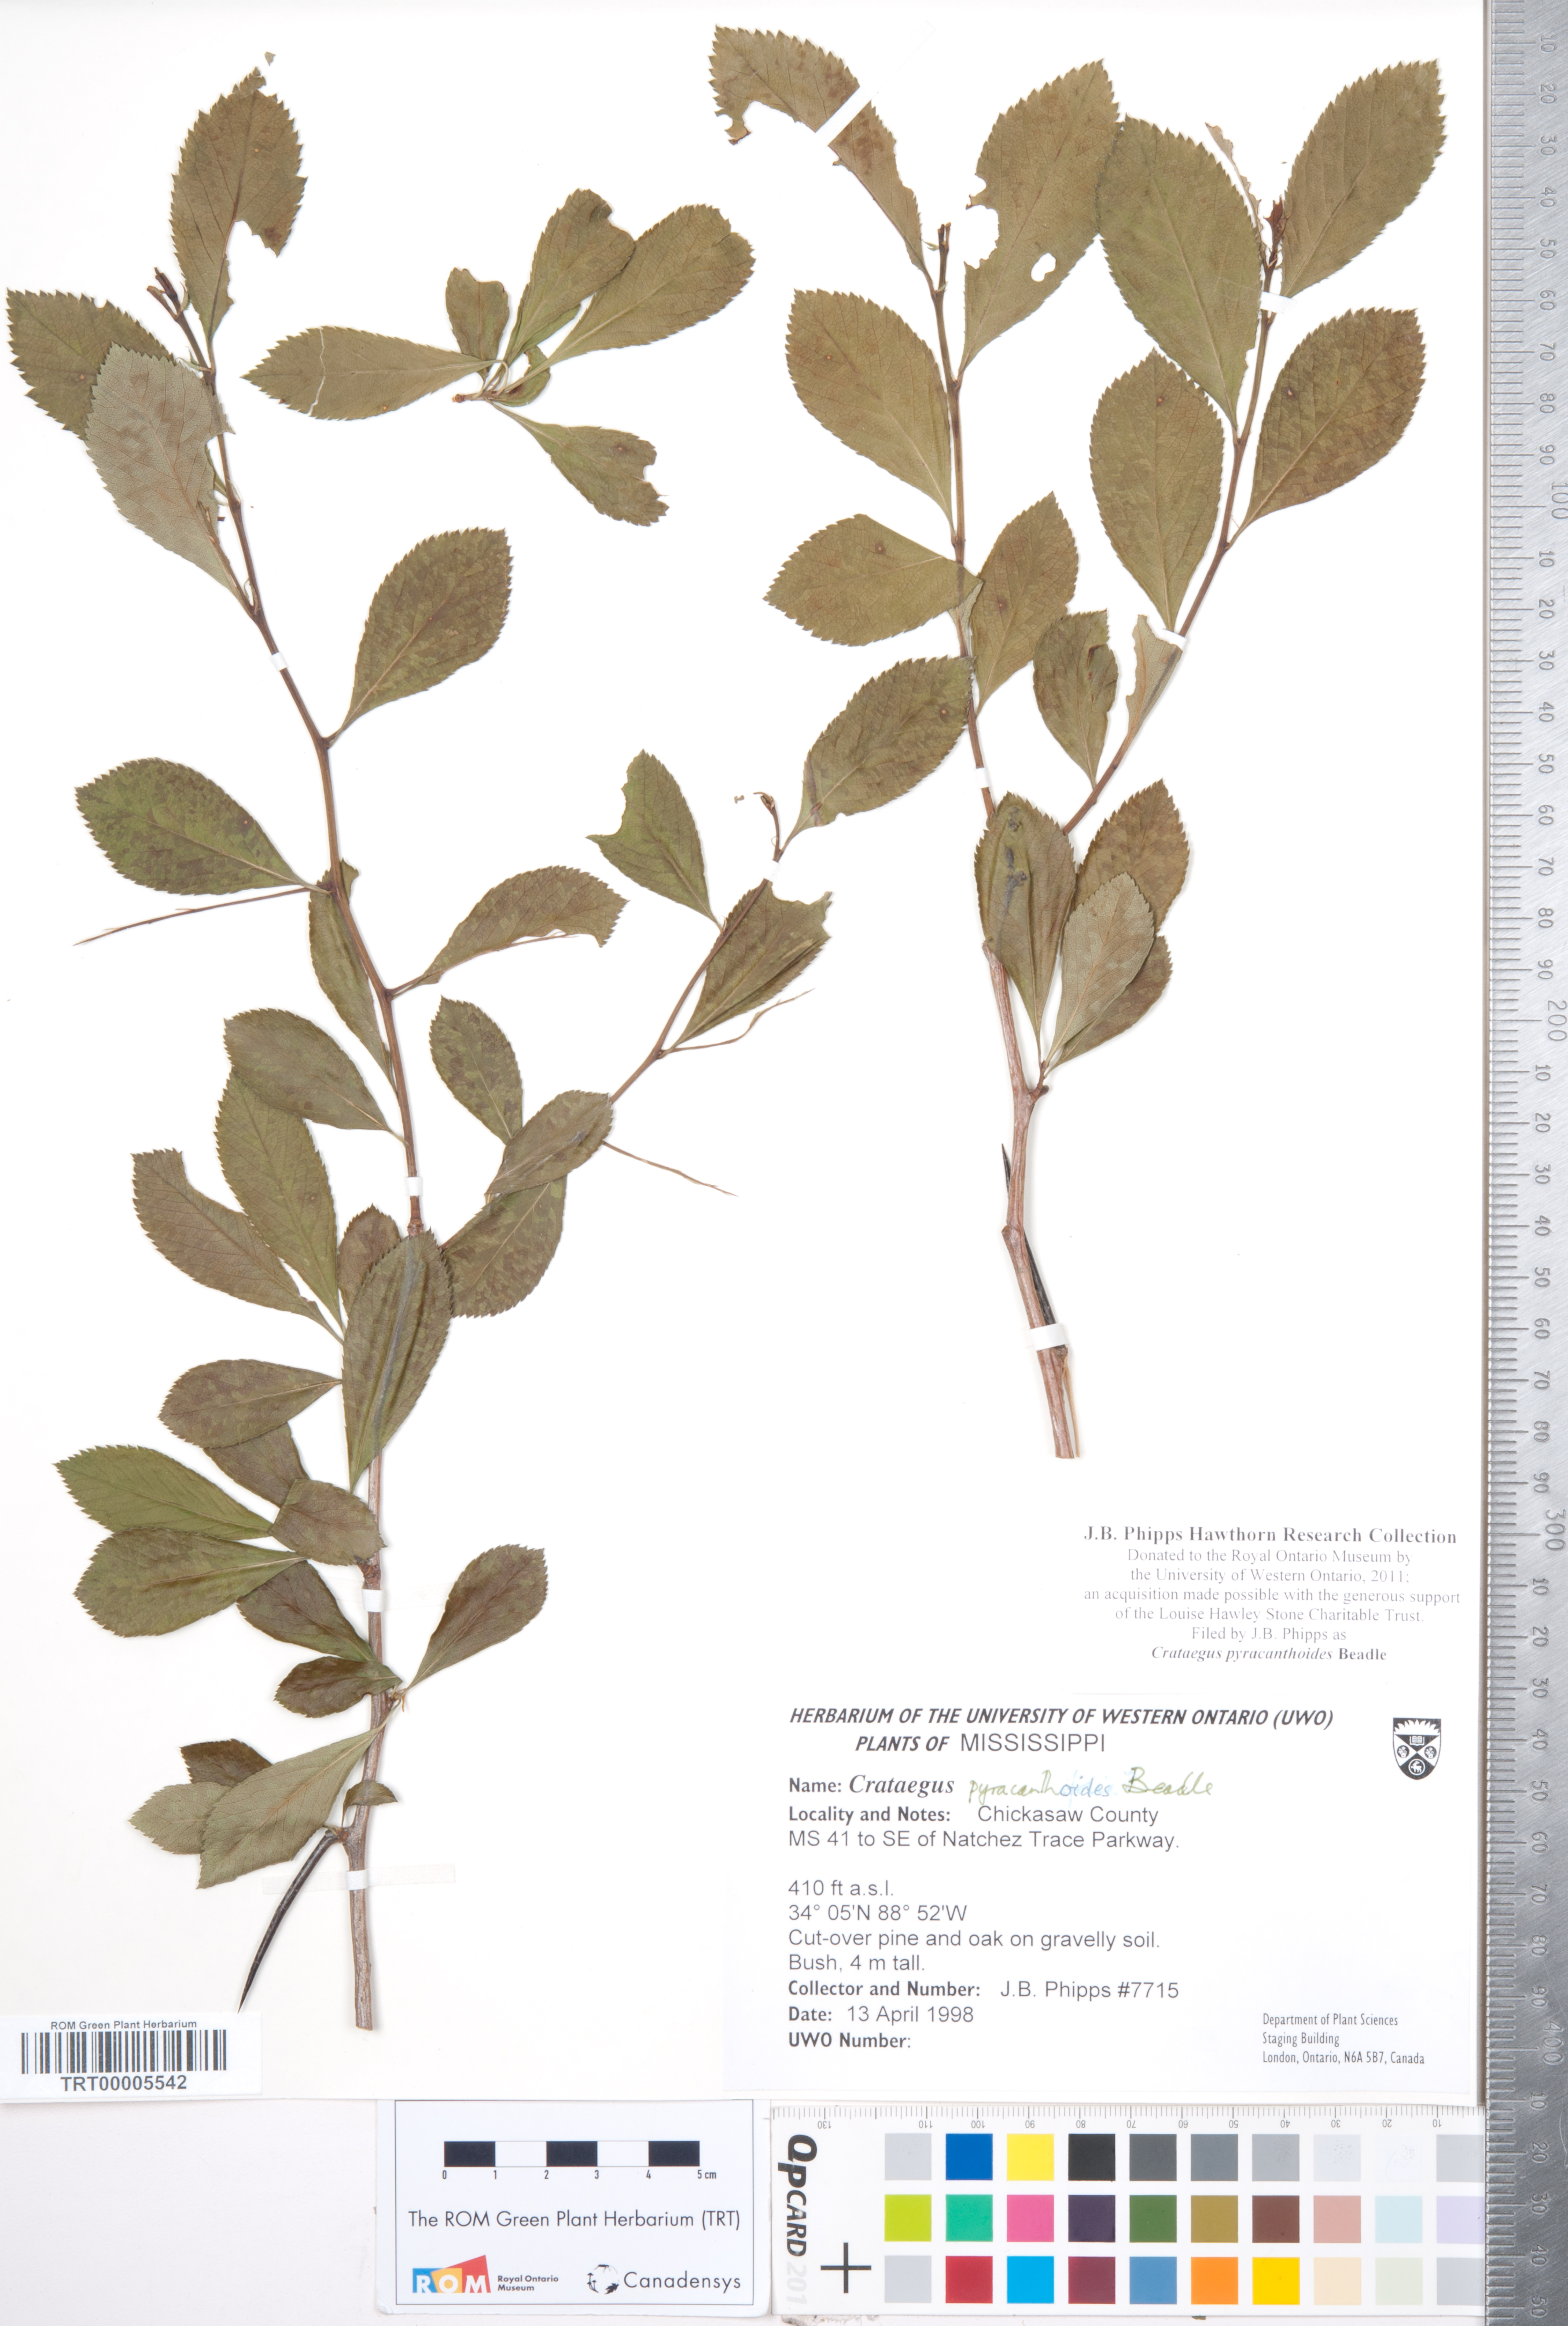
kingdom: Plantae
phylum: Tracheophyta
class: Magnoliopsida
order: Rosales
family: Rosaceae
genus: Crataegus
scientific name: Crataegus crus-galli
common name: Cockspurthorn
